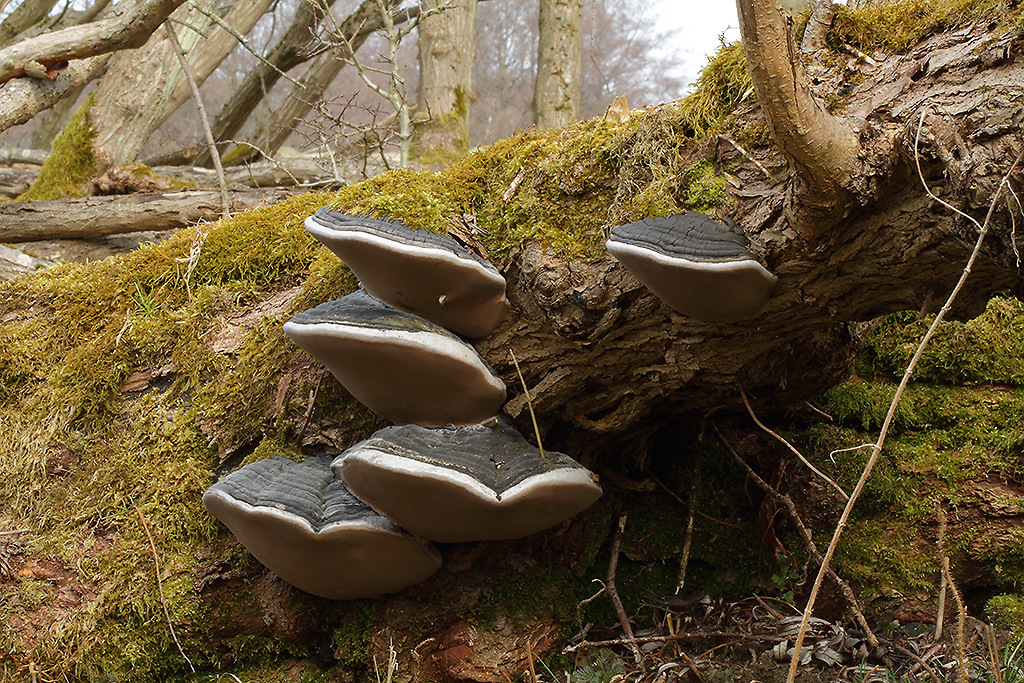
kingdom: Fungi
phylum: Basidiomycota
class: Agaricomycetes
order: Hymenochaetales
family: Hymenochaetaceae
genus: Phellinus
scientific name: Phellinus igniarius
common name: almindelig ildporesvamp
